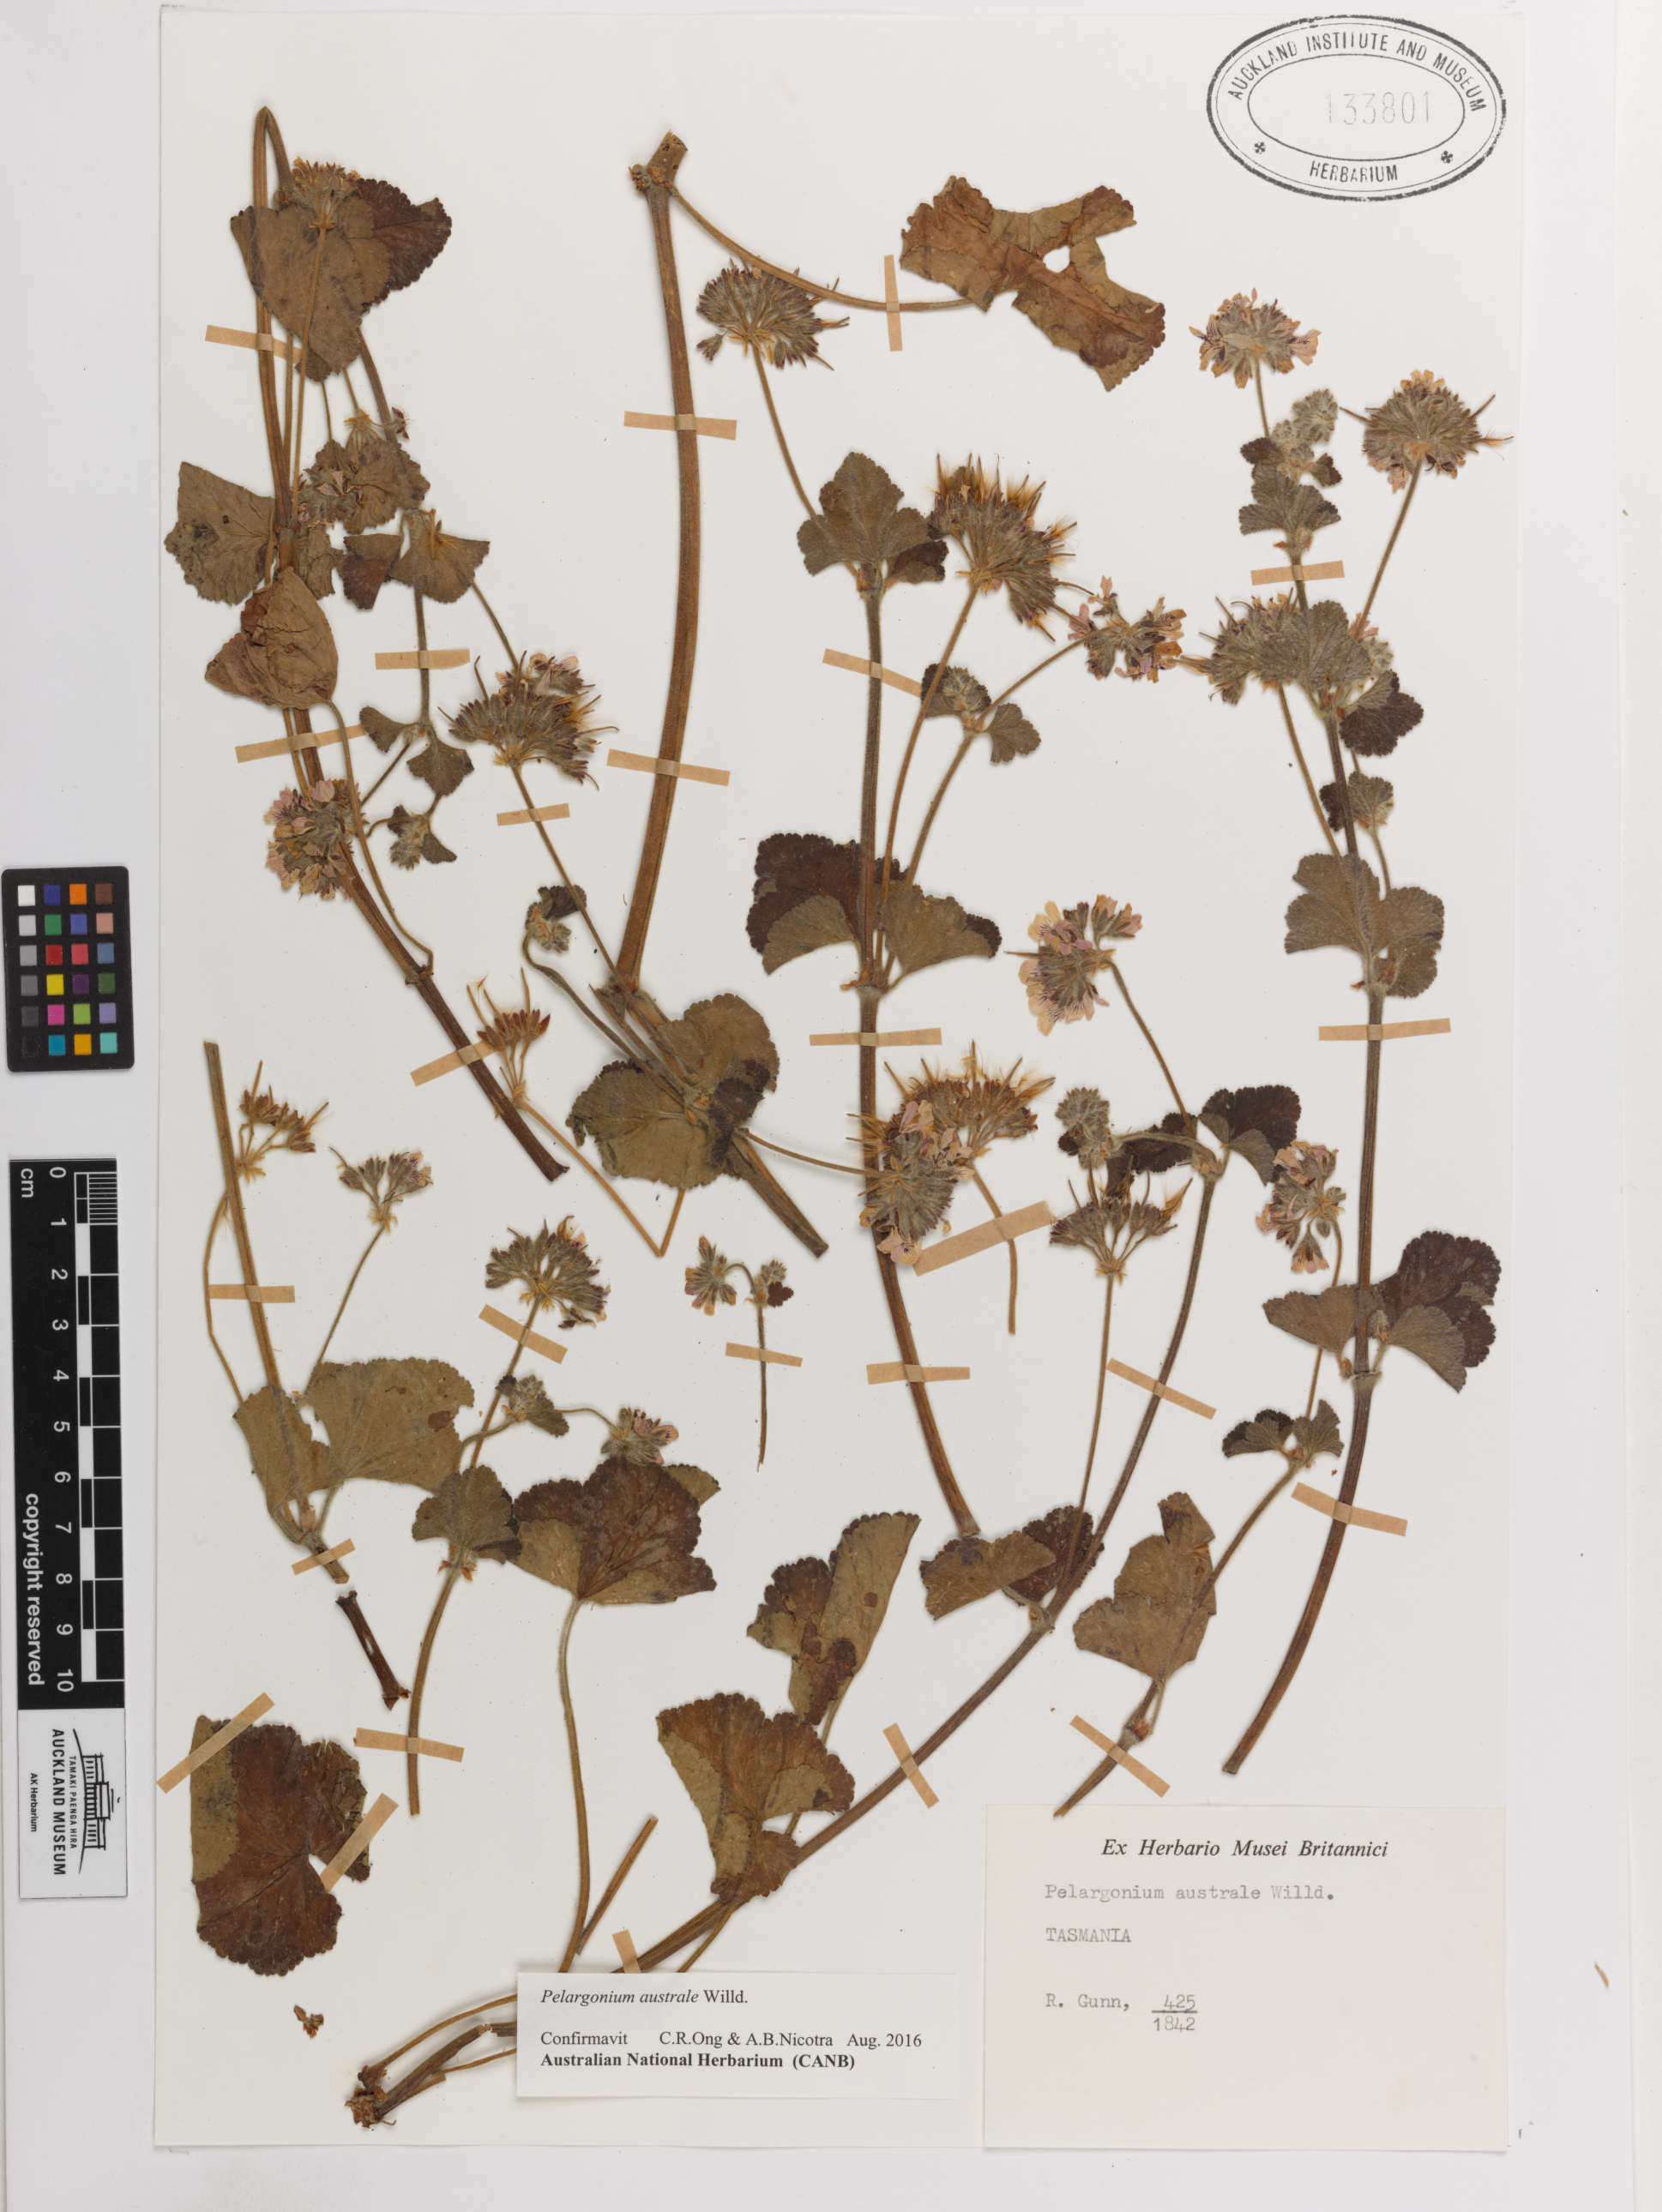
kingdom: Plantae
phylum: Tracheophyta
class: Magnoliopsida
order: Geraniales
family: Geraniaceae
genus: Pelargonium
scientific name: Pelargonium australe
